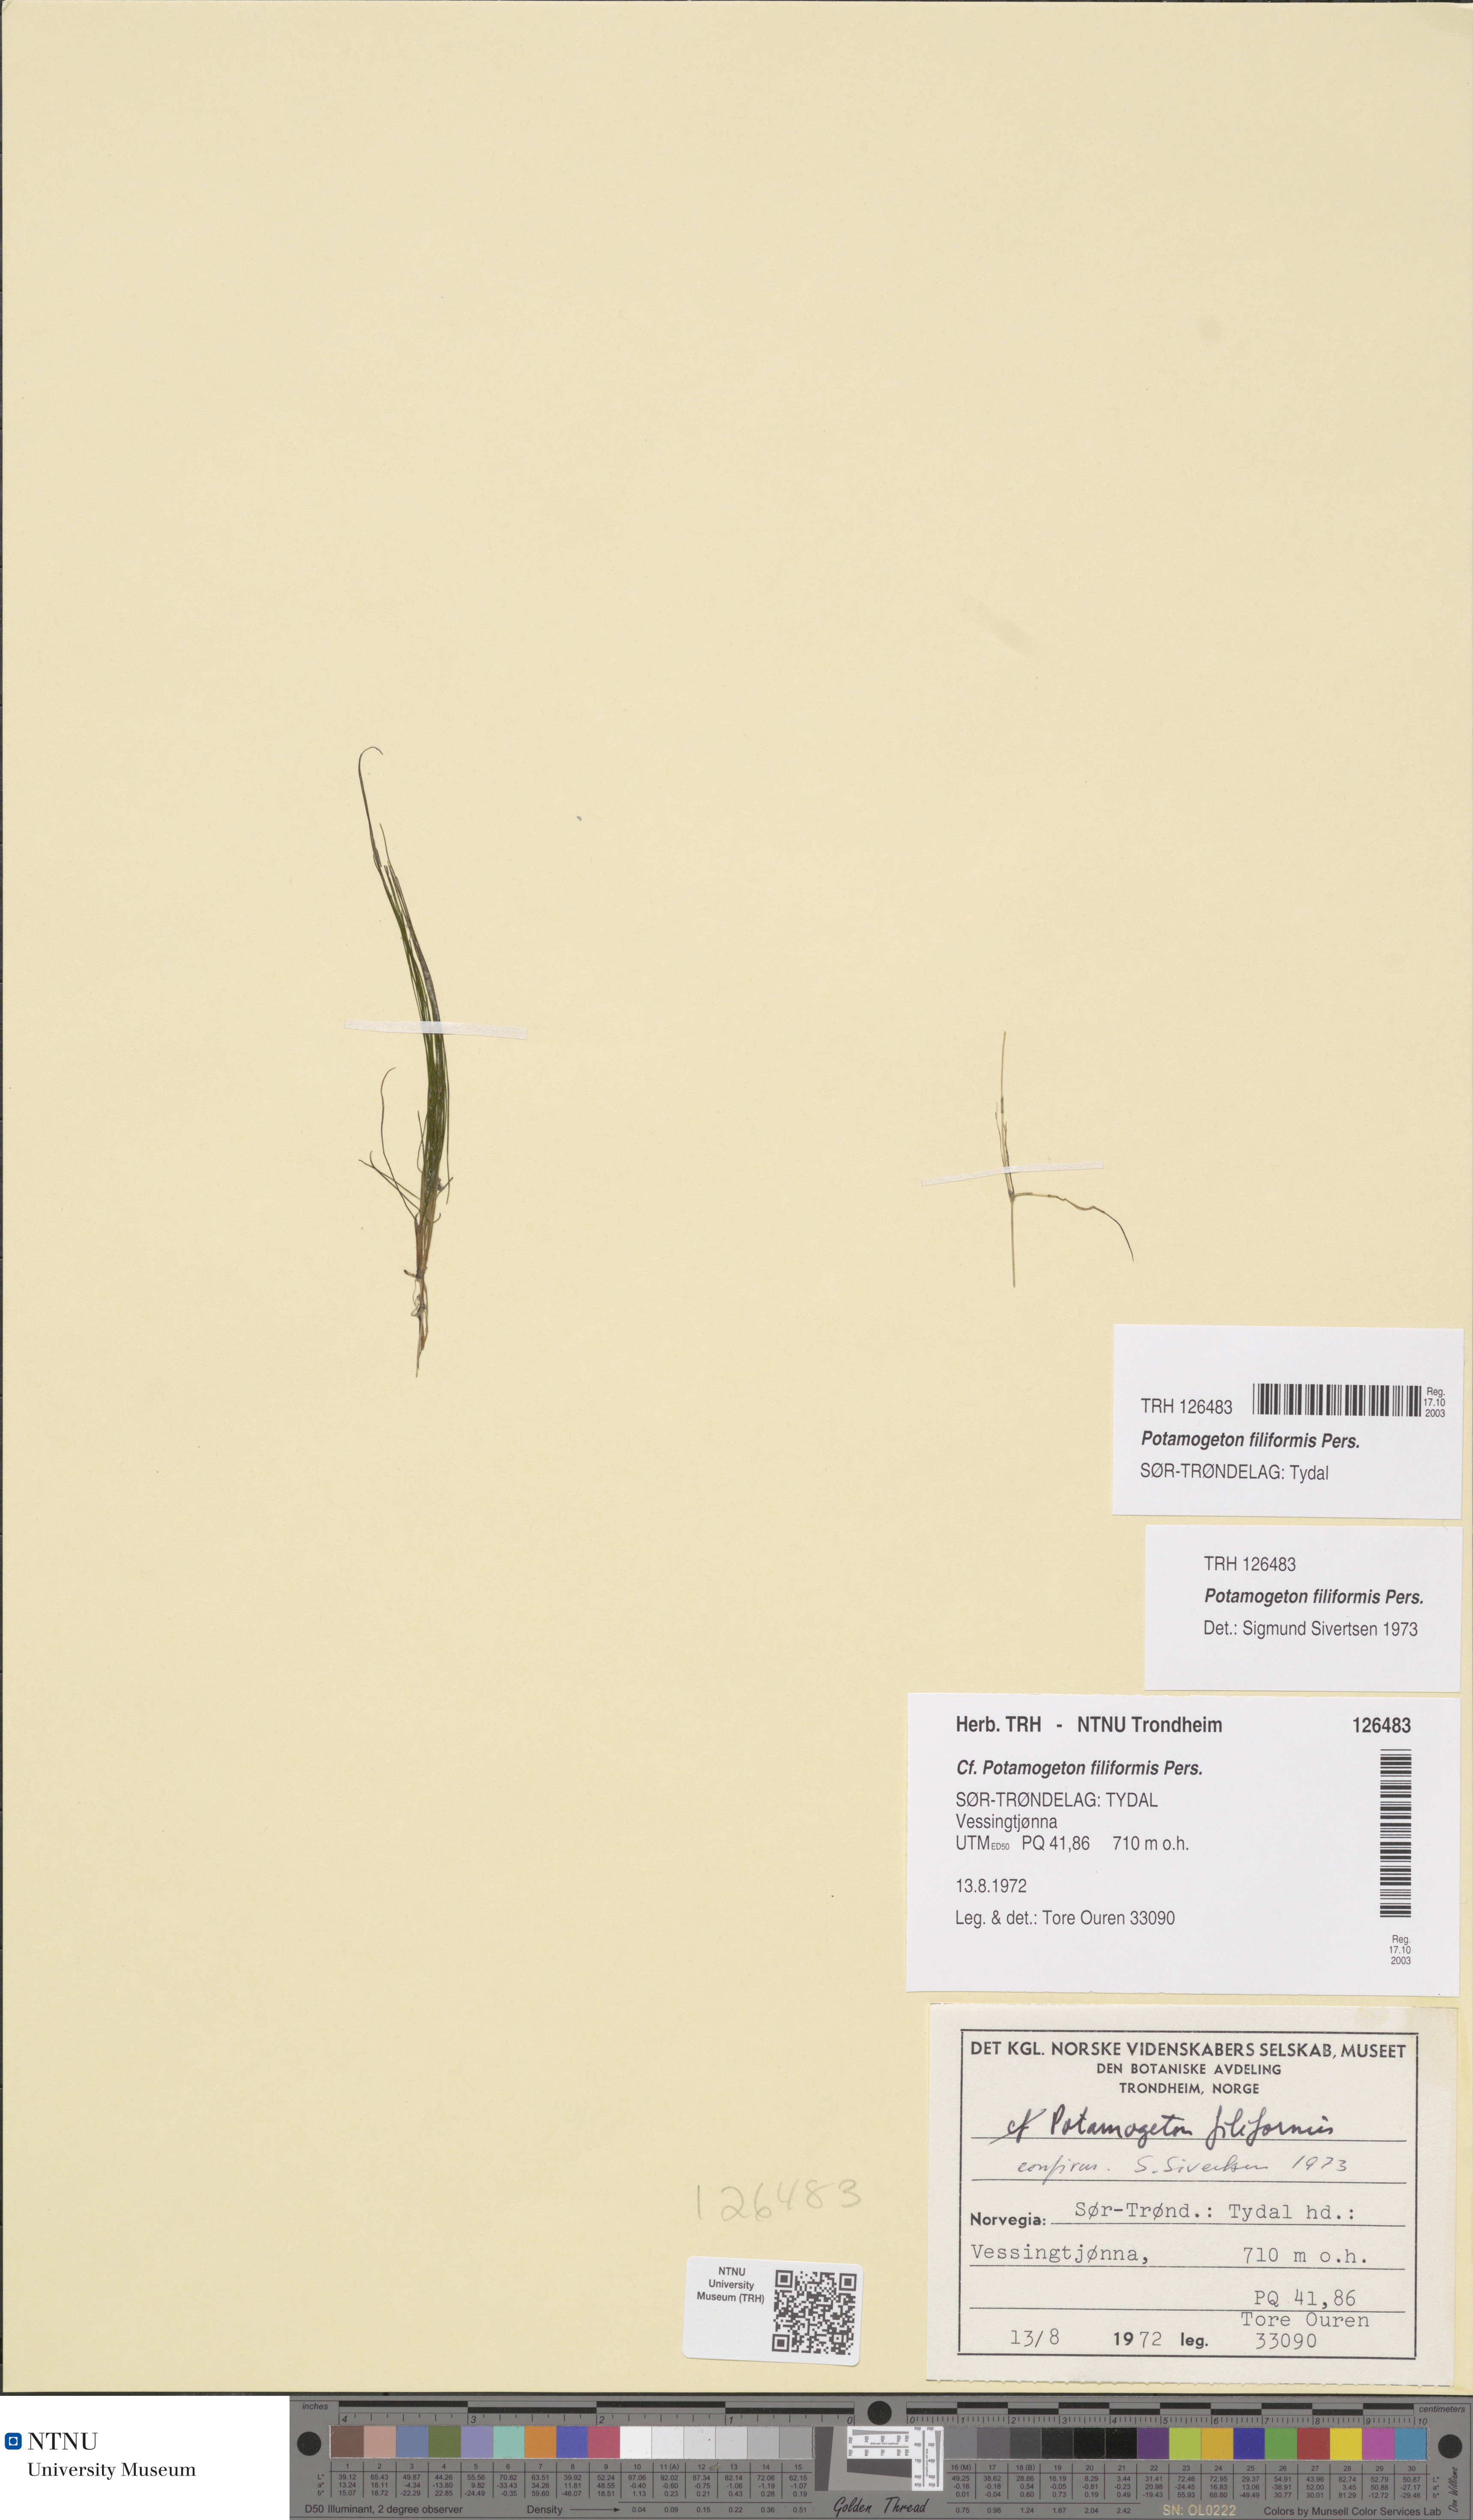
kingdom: Plantae
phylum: Tracheophyta
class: Liliopsida
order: Alismatales
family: Potamogetonaceae
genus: Stuckenia
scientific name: Stuckenia filiformis
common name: Alpine thread-leaved pondweed
